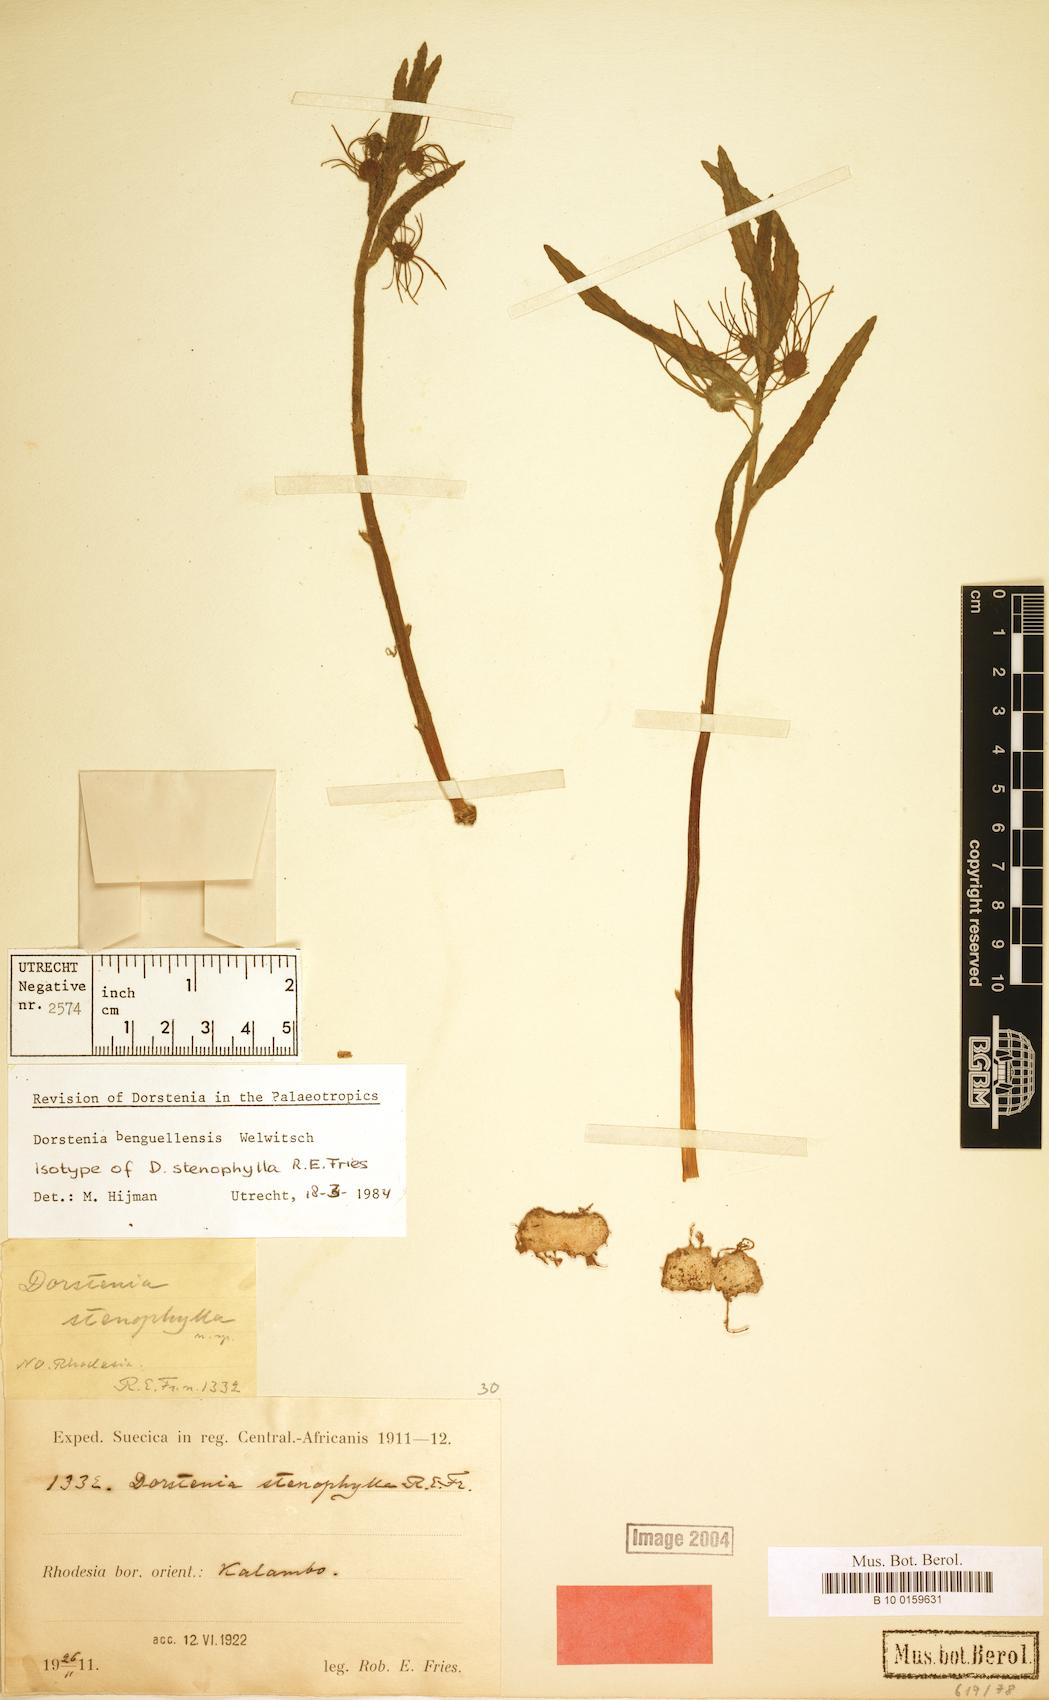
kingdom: Plantae
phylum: Tracheophyta
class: Magnoliopsida
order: Rosales
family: Moraceae
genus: Dorstenia
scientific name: Dorstenia benguellensis
